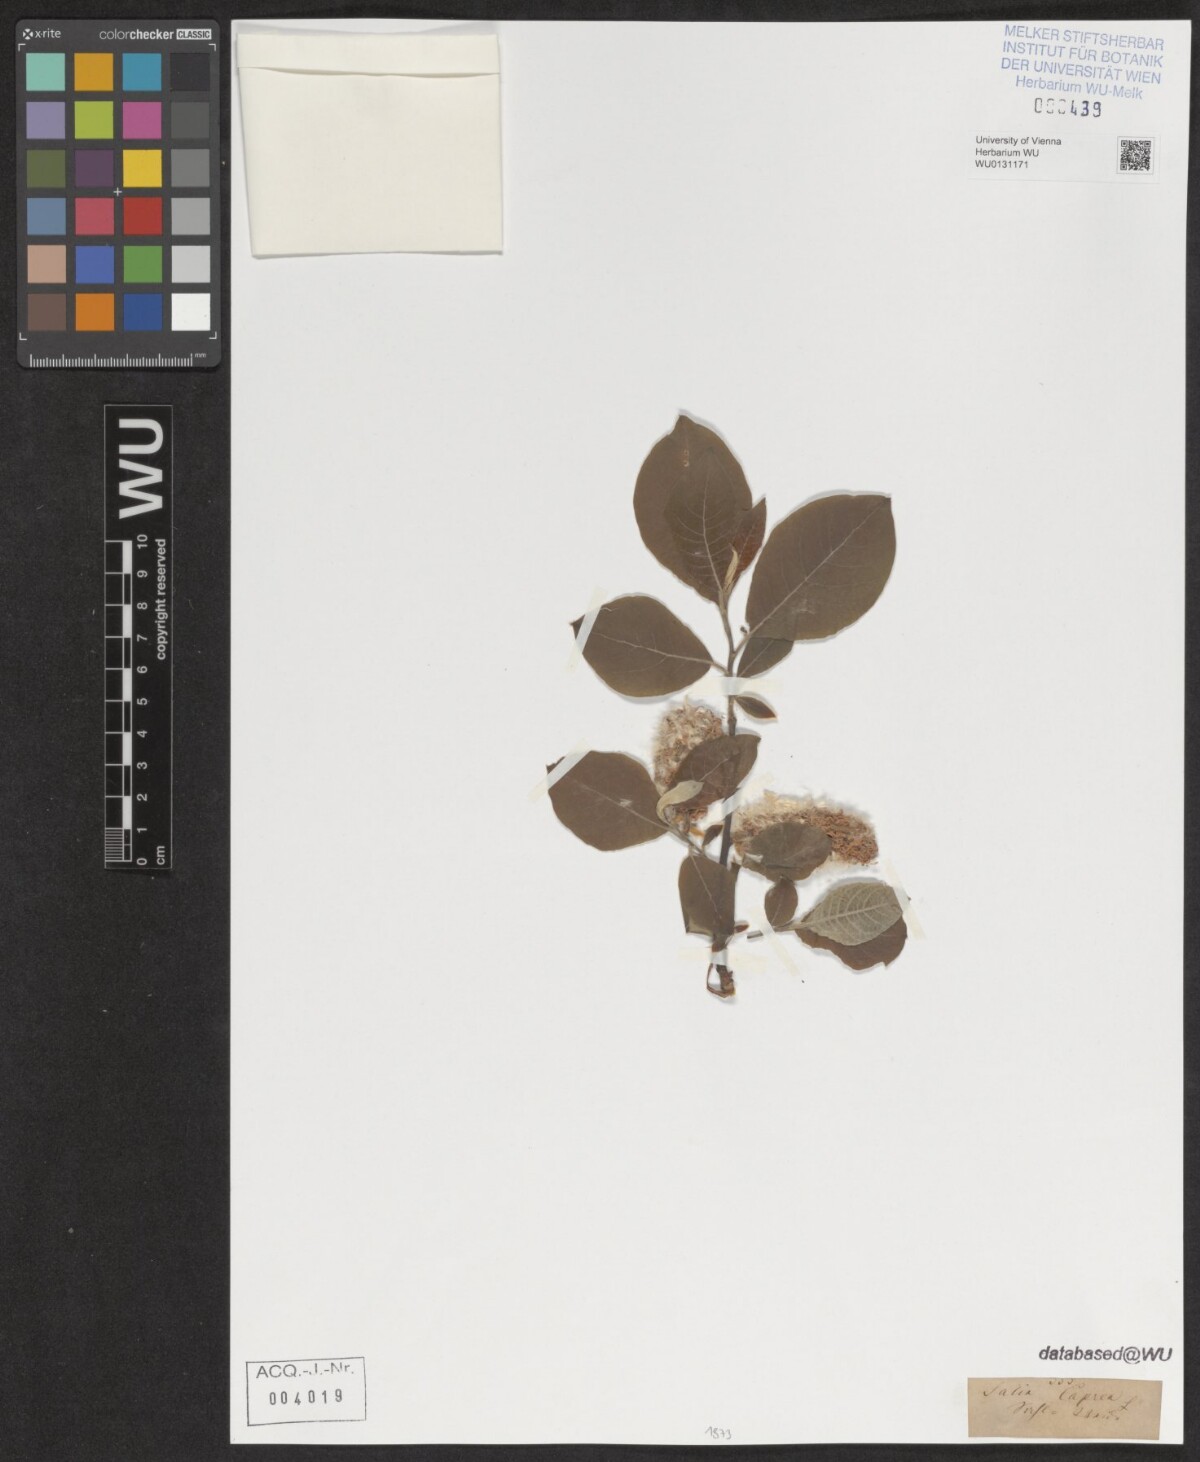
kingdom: Plantae
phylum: Tracheophyta
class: Magnoliopsida
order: Malpighiales
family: Salicaceae
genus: Salix
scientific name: Salix caprea
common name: Goat willow
